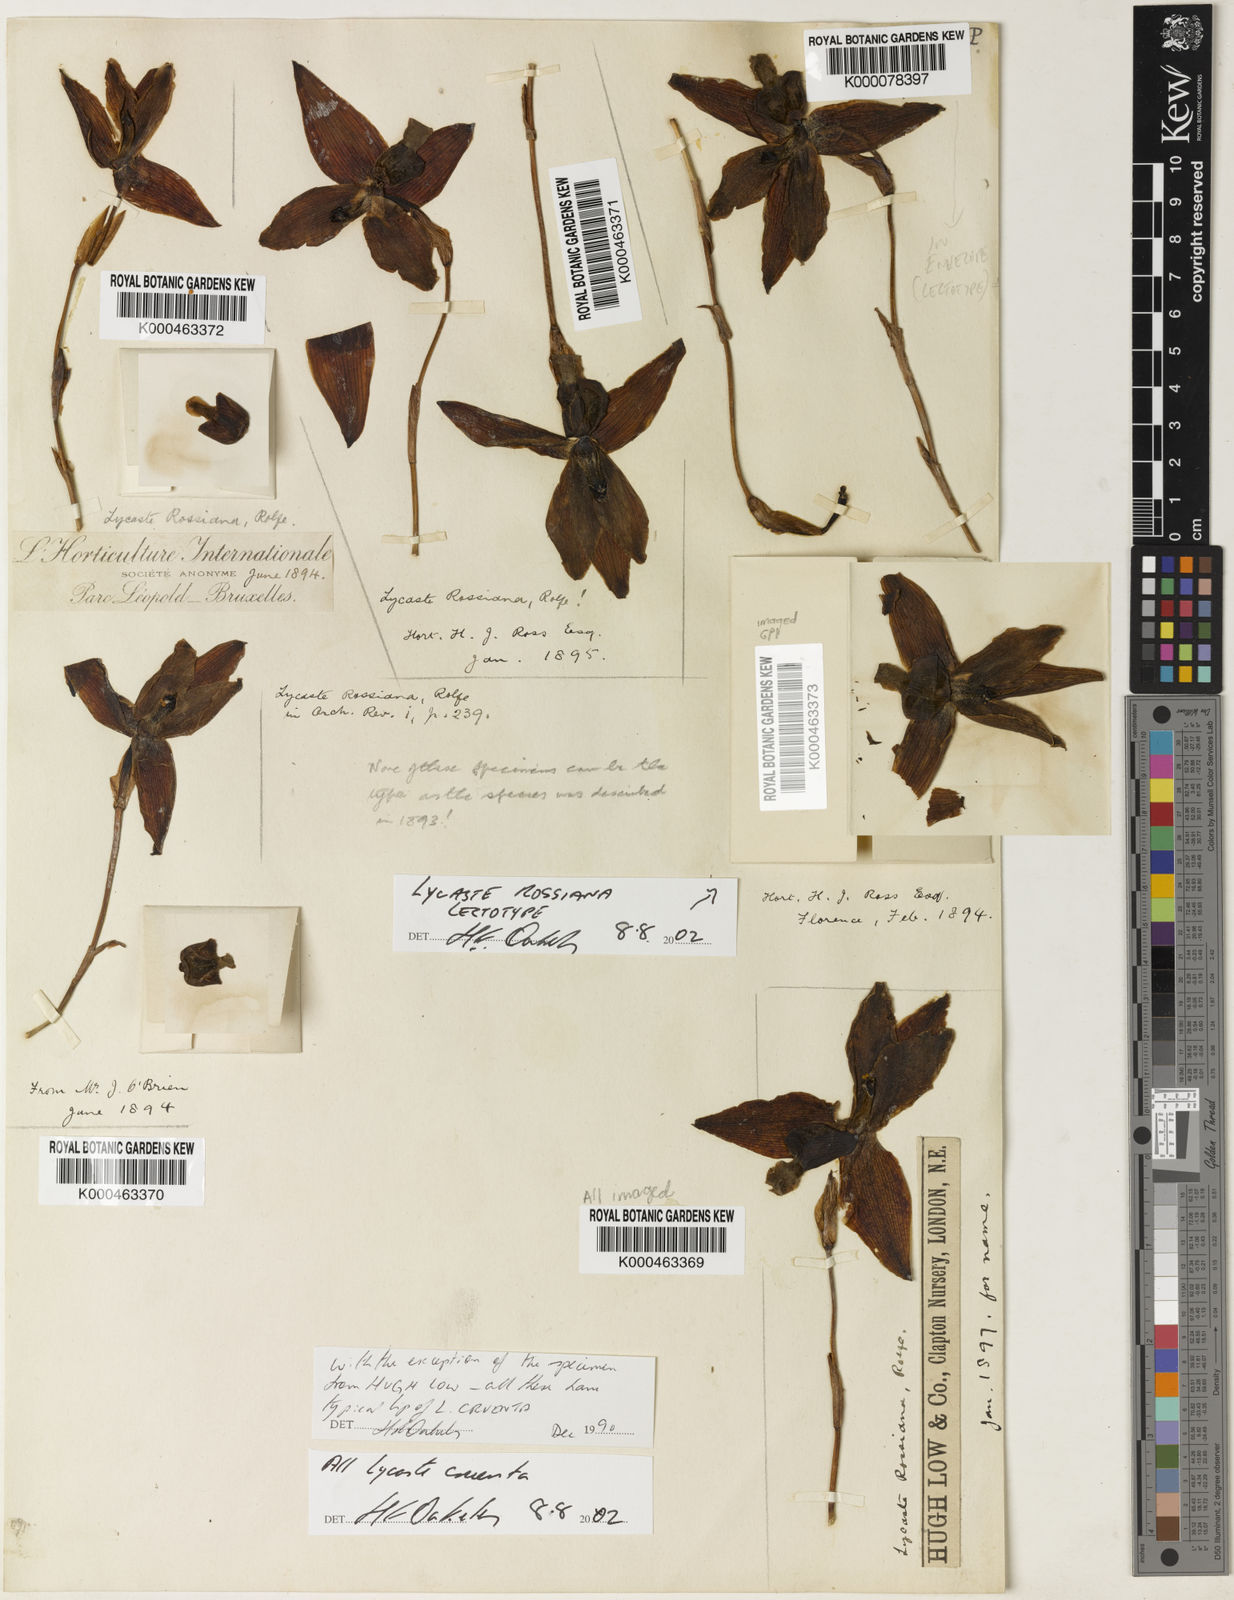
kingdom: Plantae
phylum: Tracheophyta
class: Liliopsida
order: Asparagales
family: Orchidaceae
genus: Lycaste
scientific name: Lycaste cruenta
